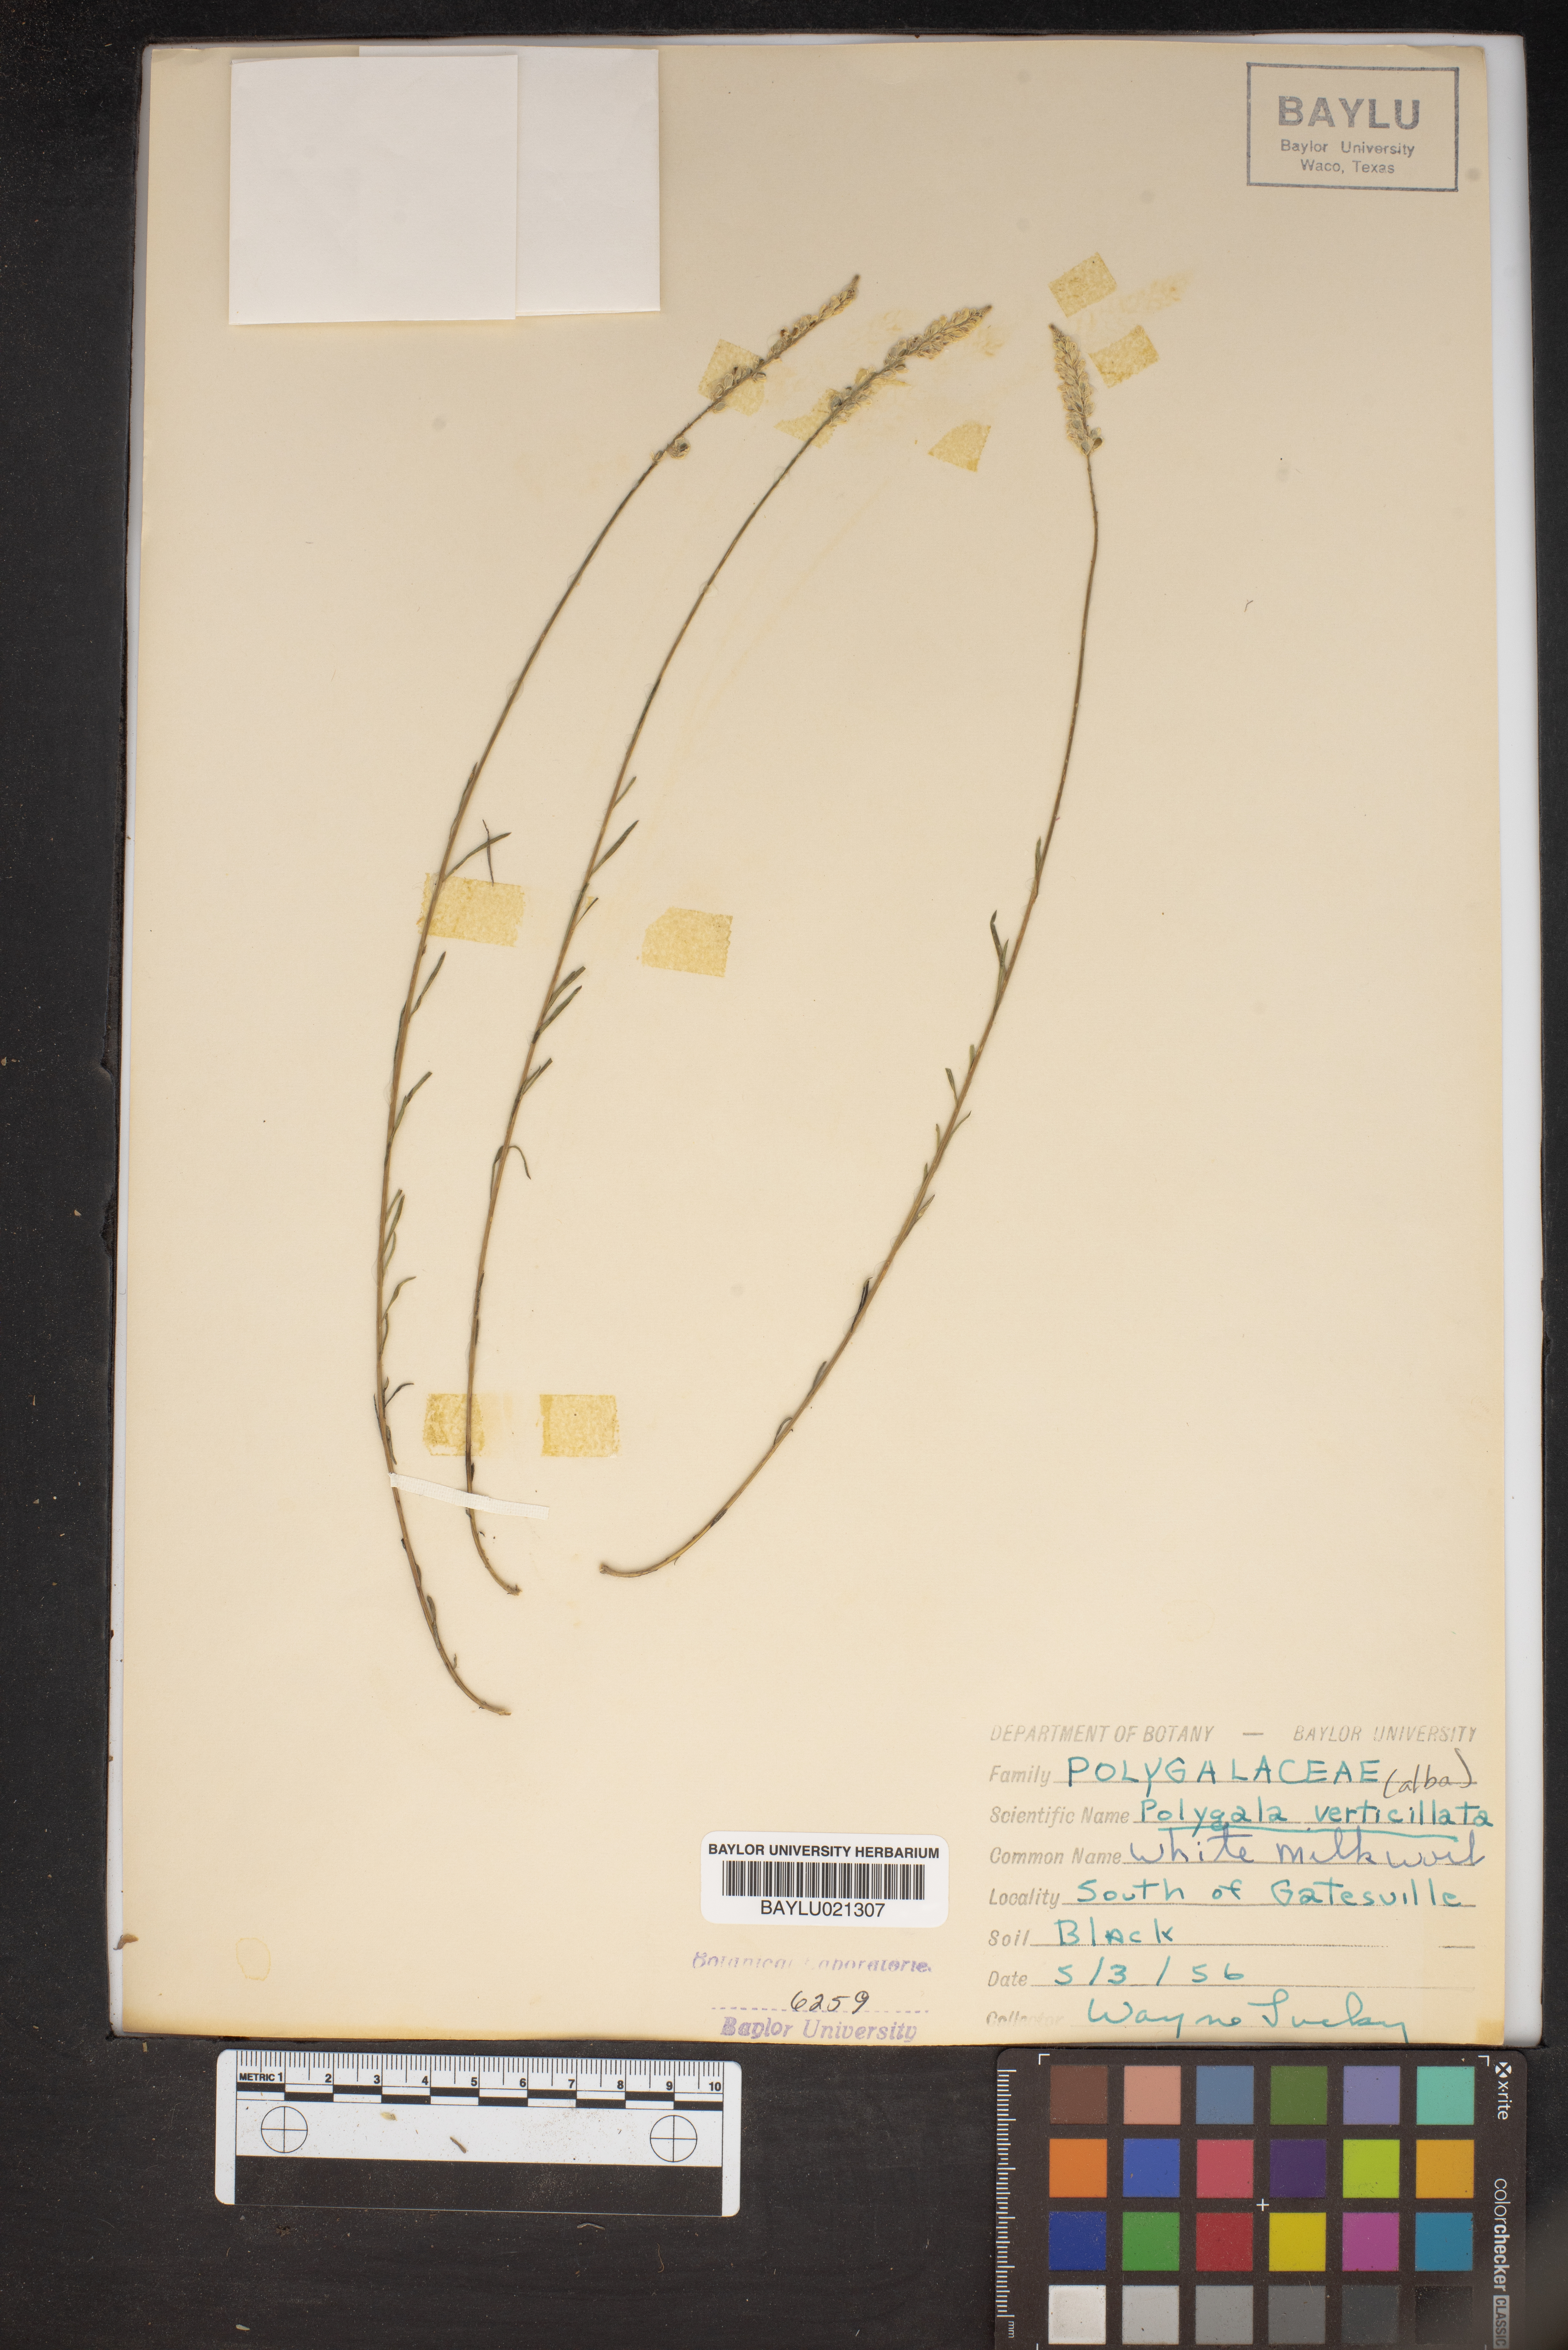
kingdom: Plantae
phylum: Tracheophyta
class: Magnoliopsida
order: Fabales
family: Polygalaceae
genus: Polygala
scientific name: Polygala verticillata
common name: Whorl milkwort
